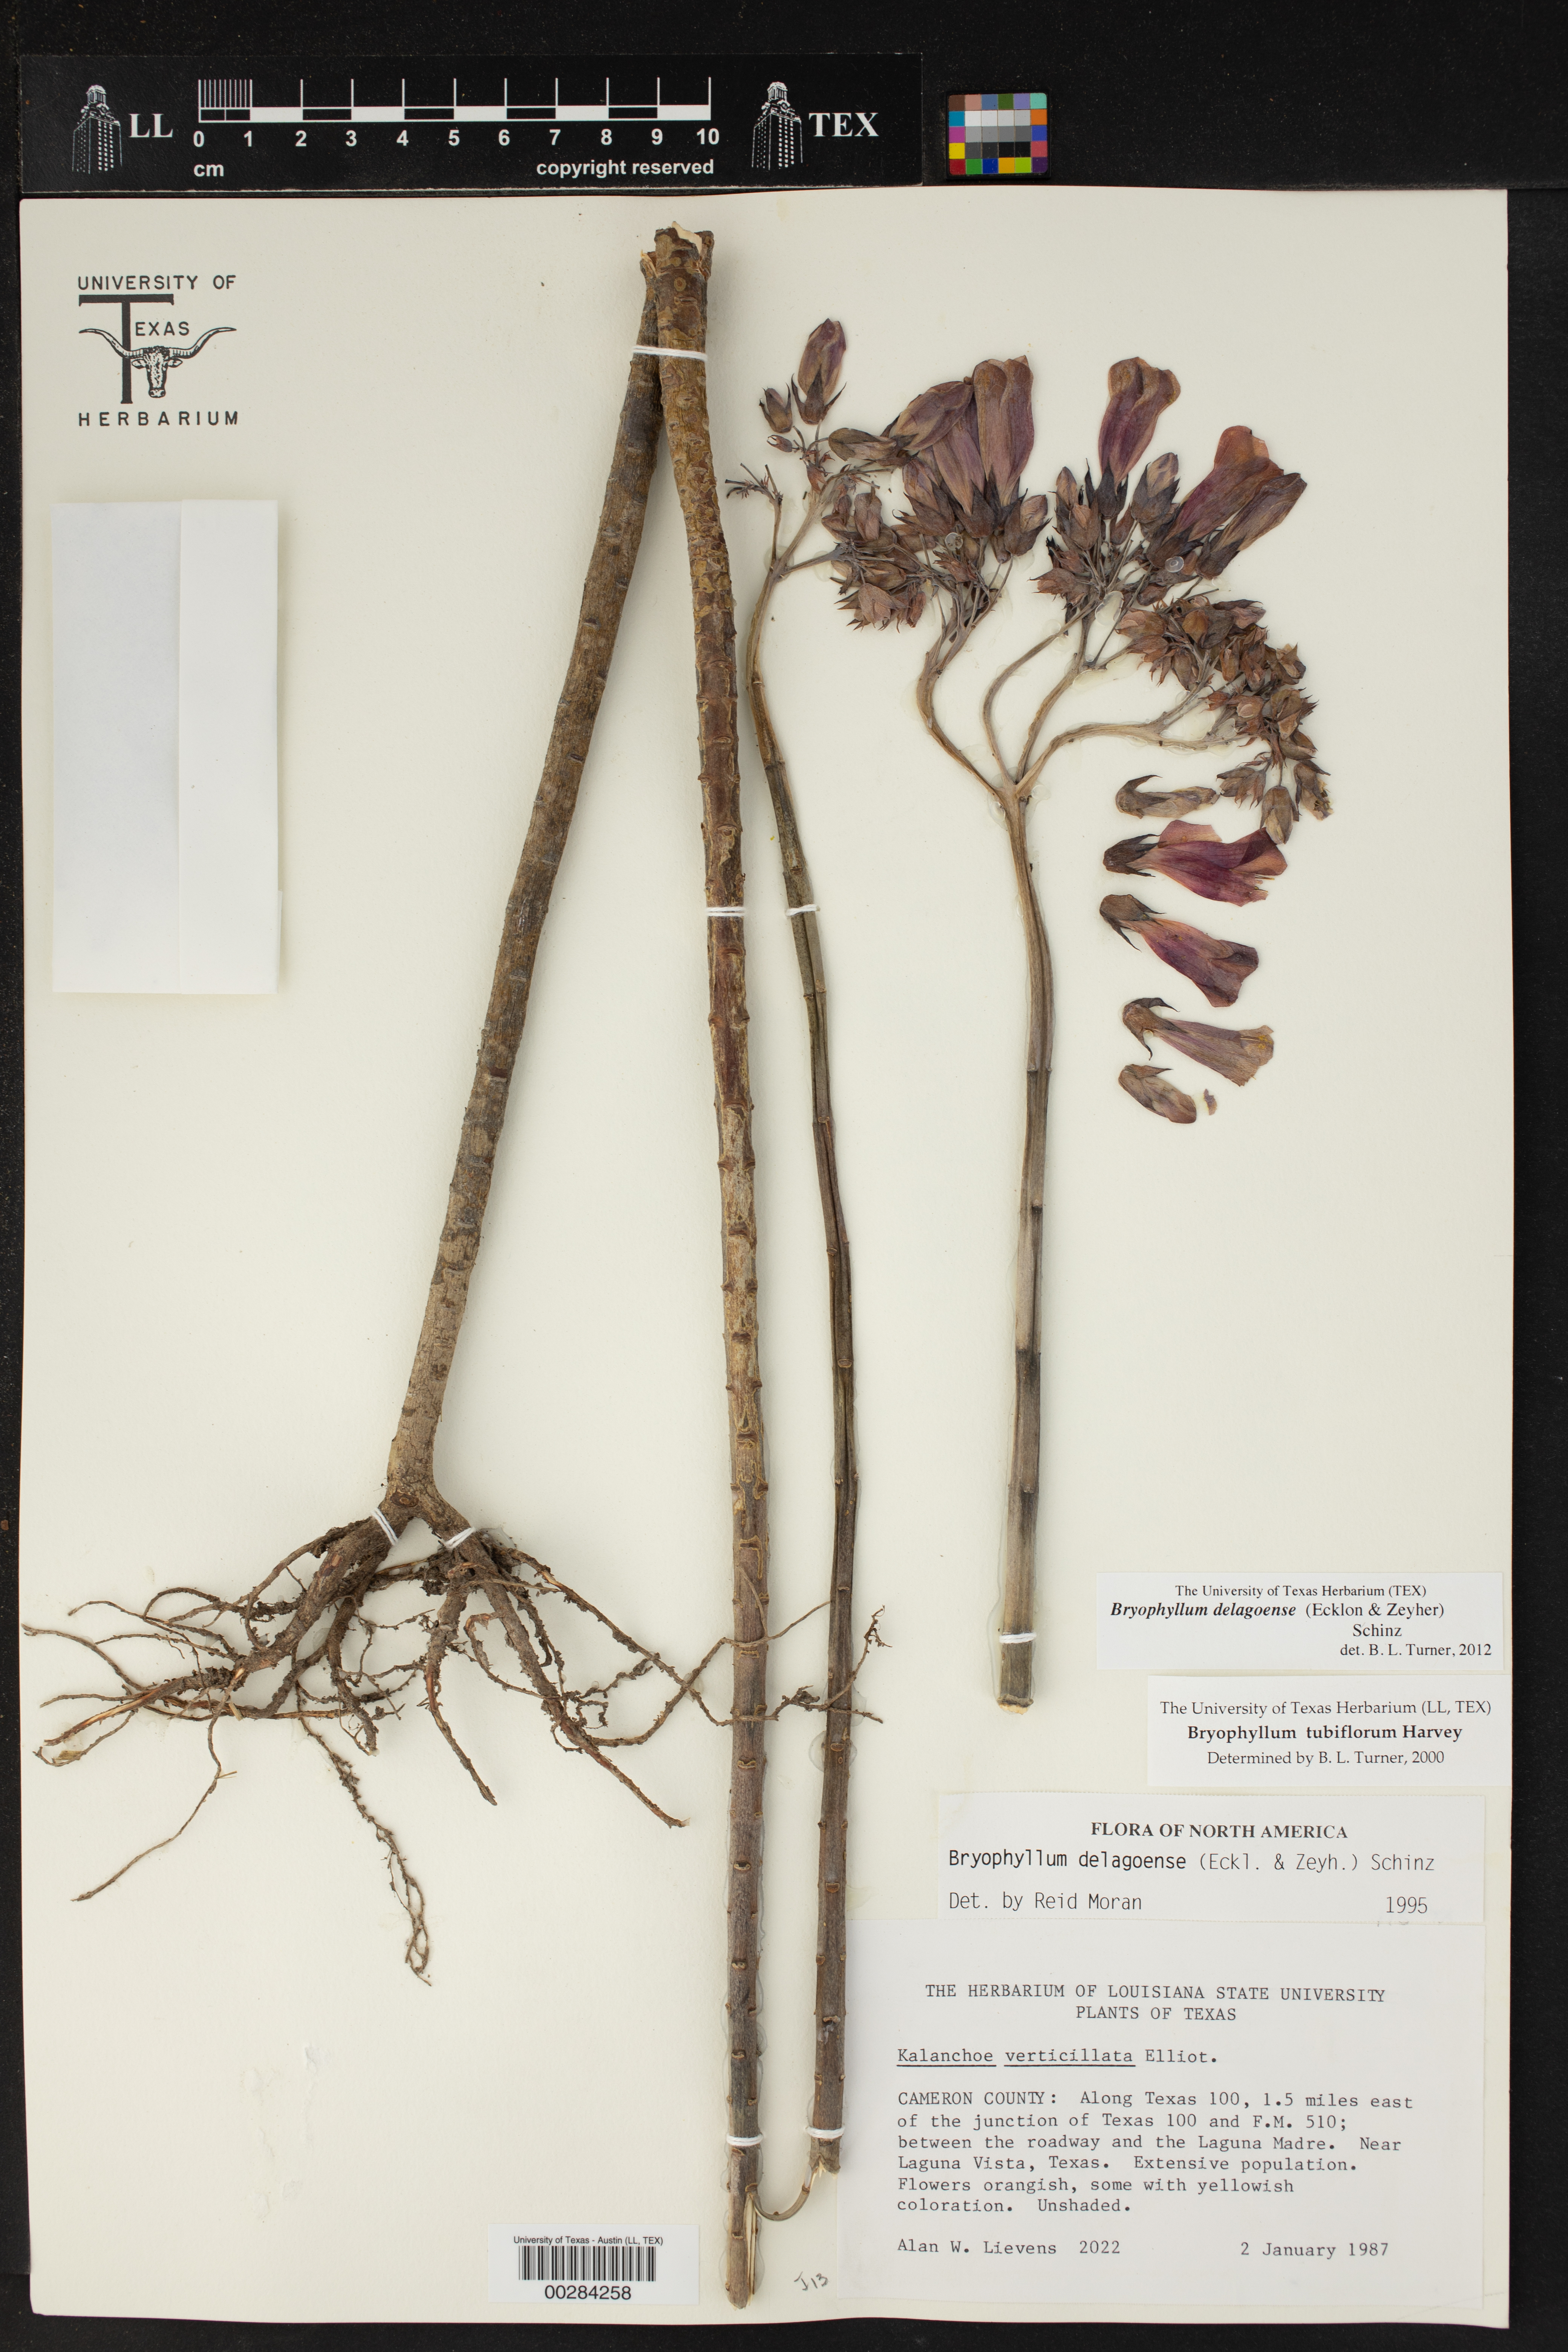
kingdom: Plantae
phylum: Tracheophyta
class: Magnoliopsida
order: Saxifragales
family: Crassulaceae
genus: Kalanchoe
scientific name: Kalanchoe delagoensis
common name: Chandelier plant
